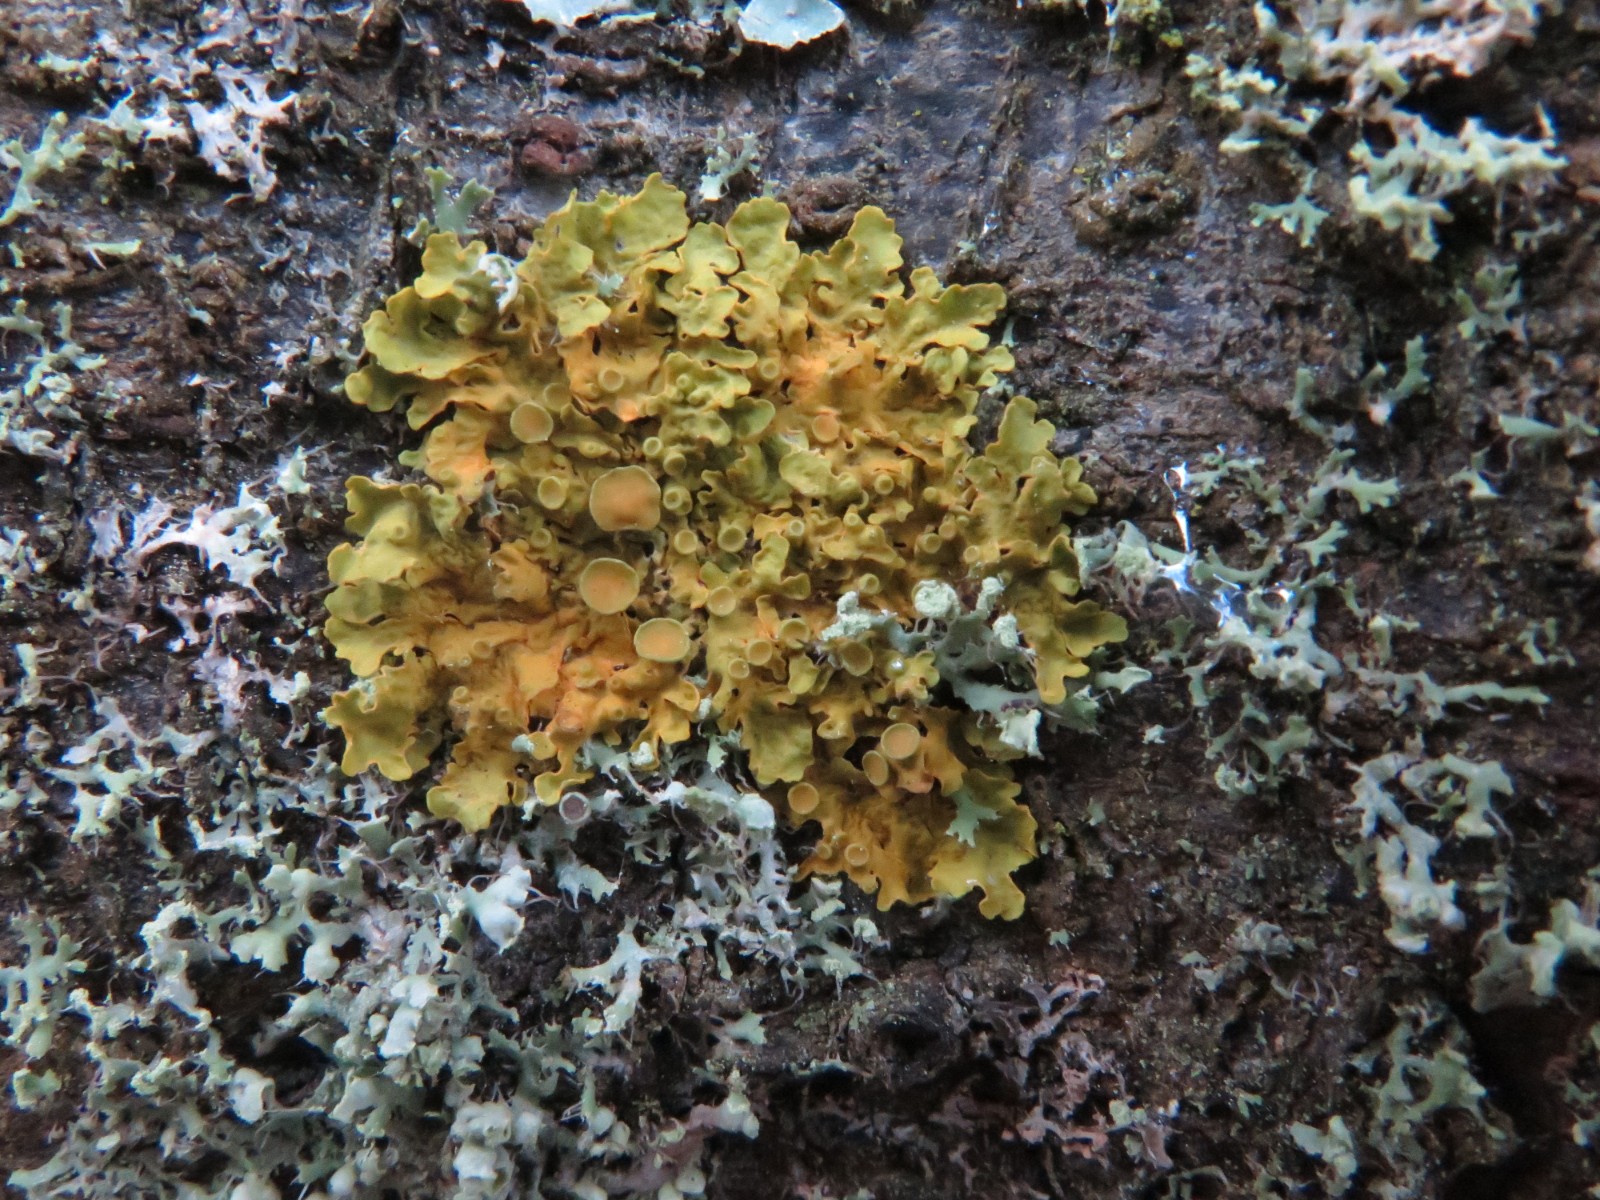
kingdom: Fungi
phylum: Ascomycota
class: Lecanoromycetes
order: Teloschistales
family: Teloschistaceae
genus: Xanthoria
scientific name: Xanthoria parietina
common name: almindelig væggelav
